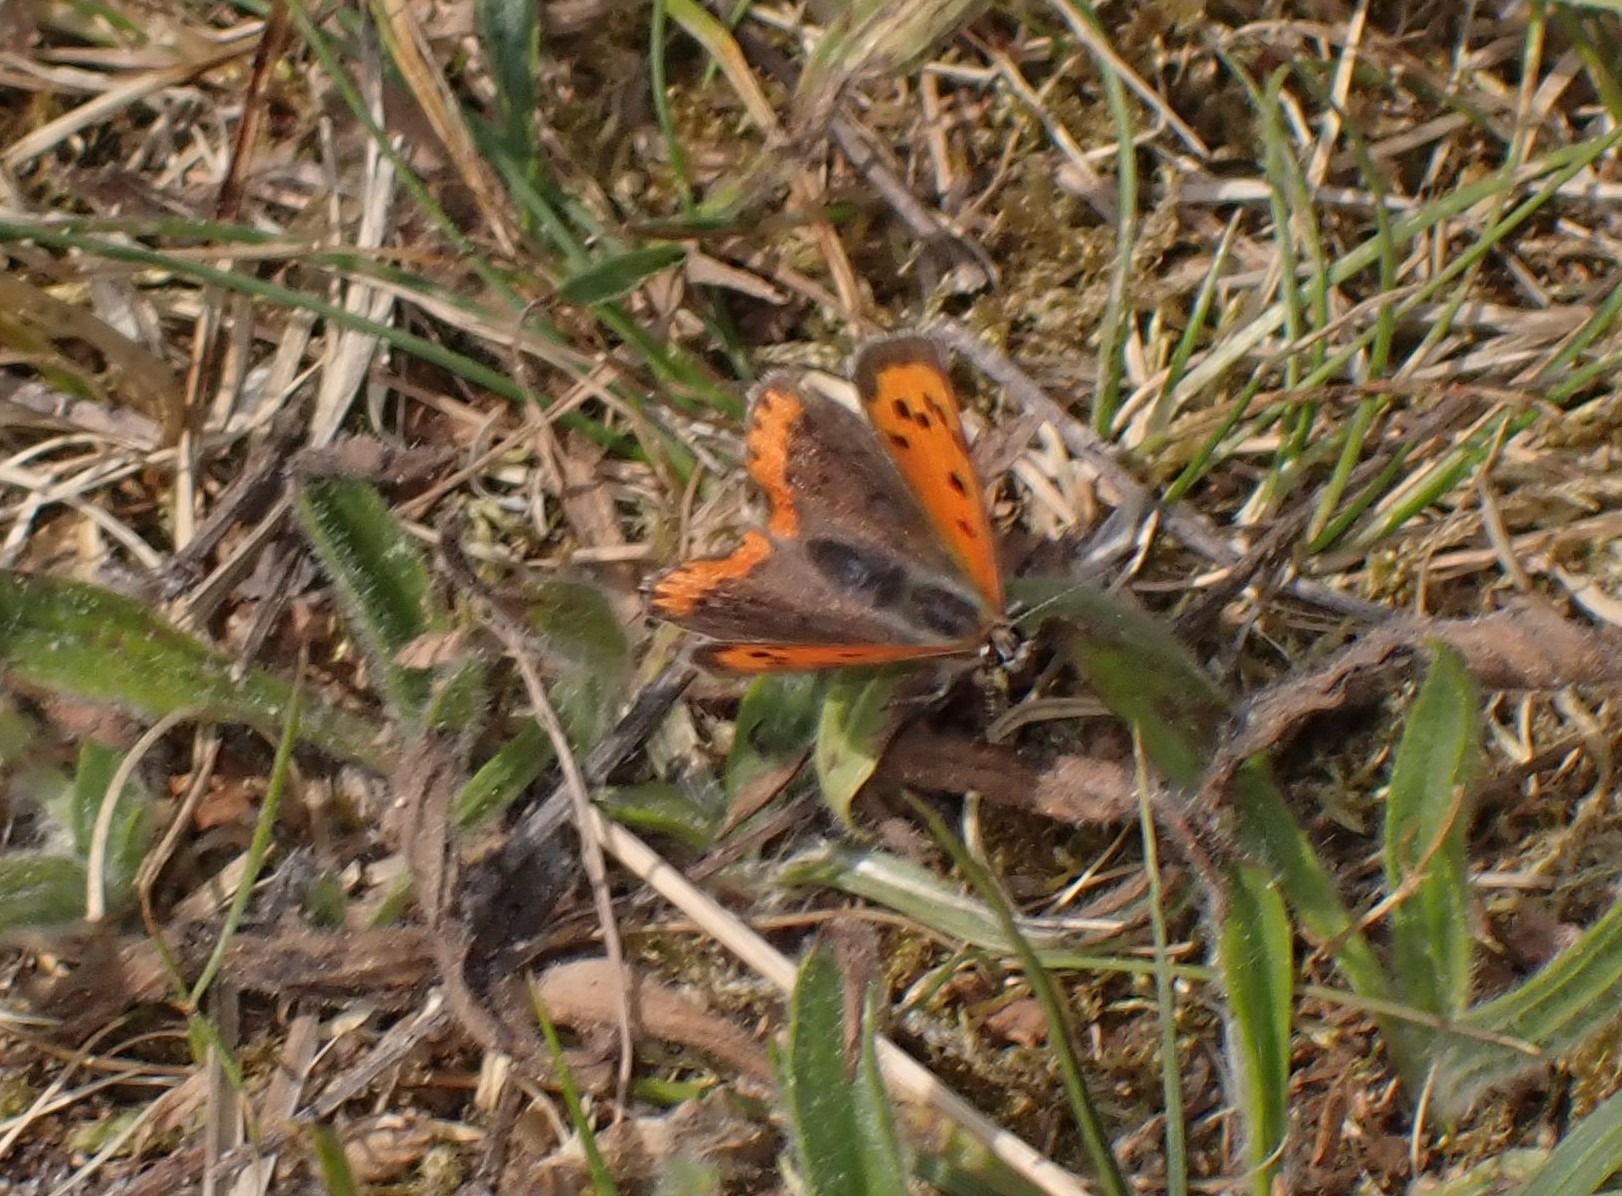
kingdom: Animalia
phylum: Arthropoda
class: Insecta
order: Lepidoptera
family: Lycaenidae
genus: Lycaena
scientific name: Lycaena phlaeas
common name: Lille ildfugl
